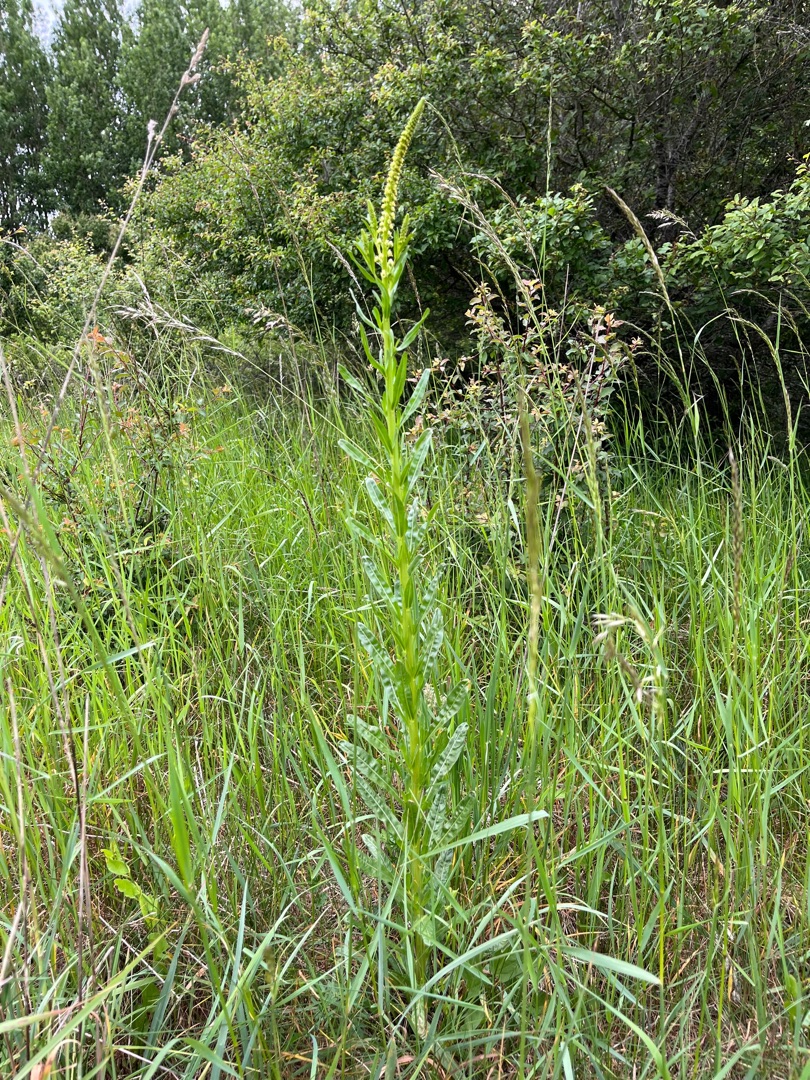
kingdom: Plantae
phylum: Tracheophyta
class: Magnoliopsida
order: Brassicales
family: Resedaceae
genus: Reseda
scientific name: Reseda luteola
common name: Farve-reseda
